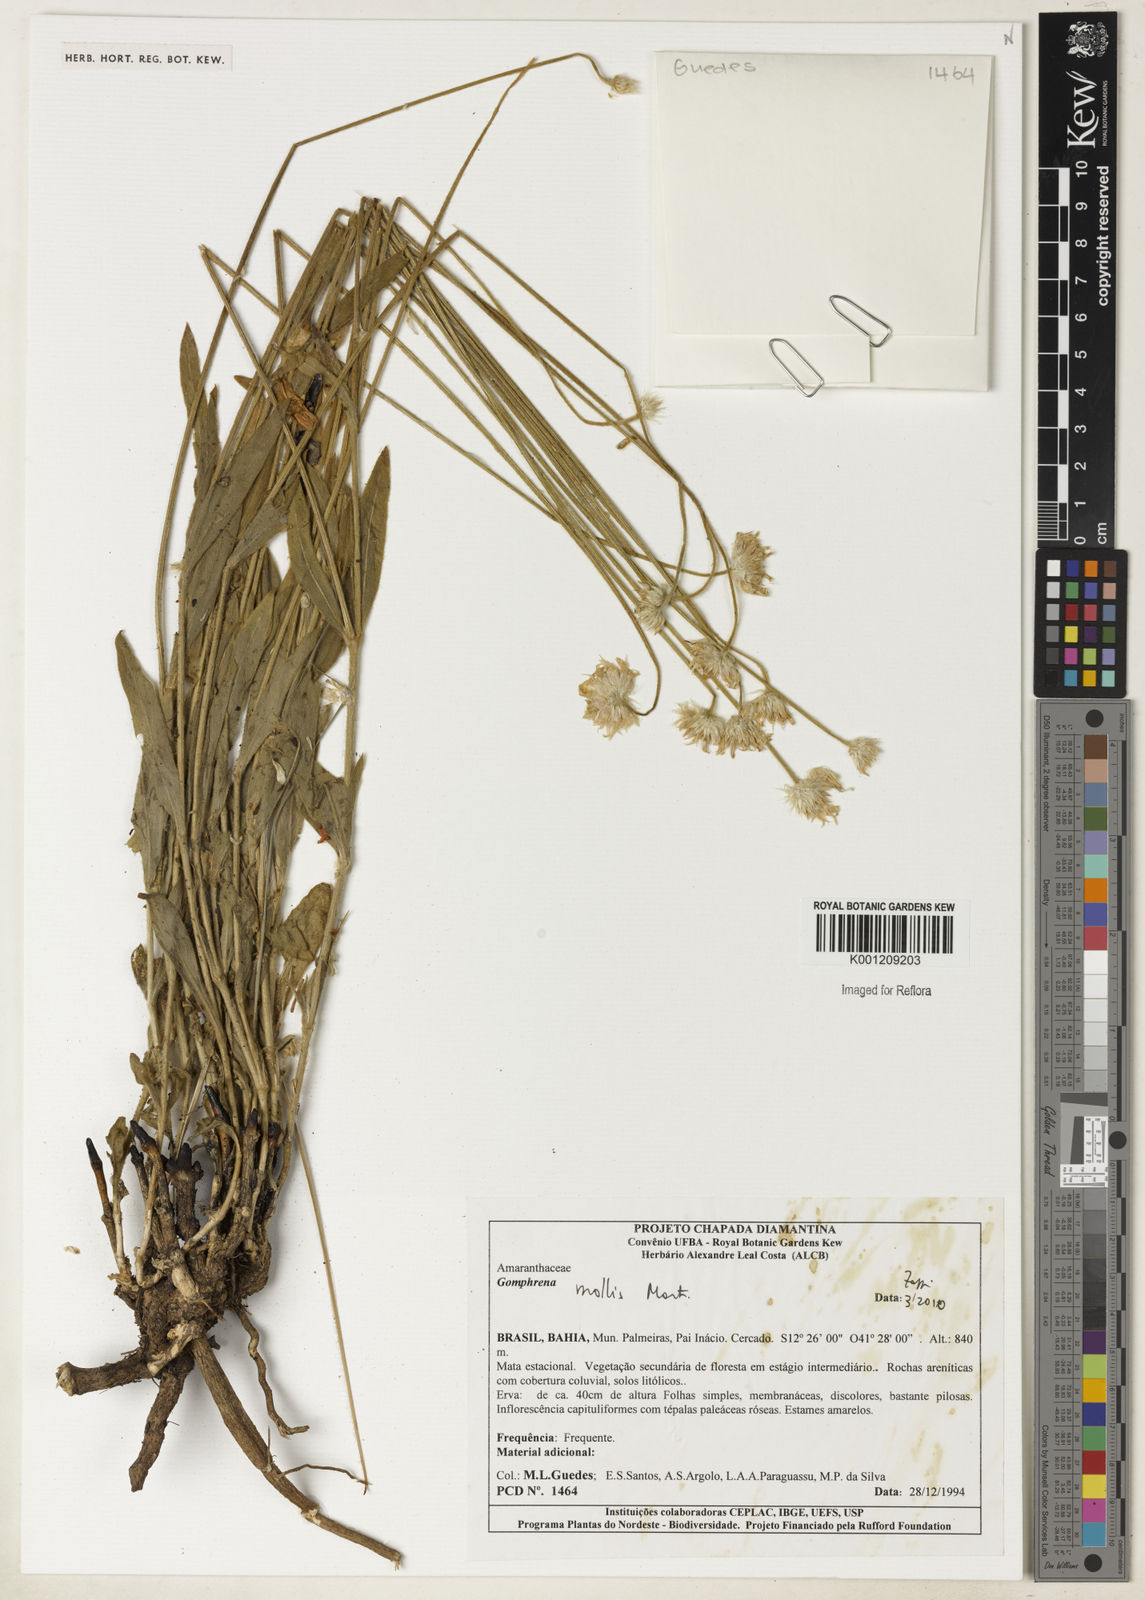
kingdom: Plantae
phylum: Tracheophyta
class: Magnoliopsida
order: Caryophyllales
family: Amaranthaceae
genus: Gomphrena
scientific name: Gomphrena mollis
